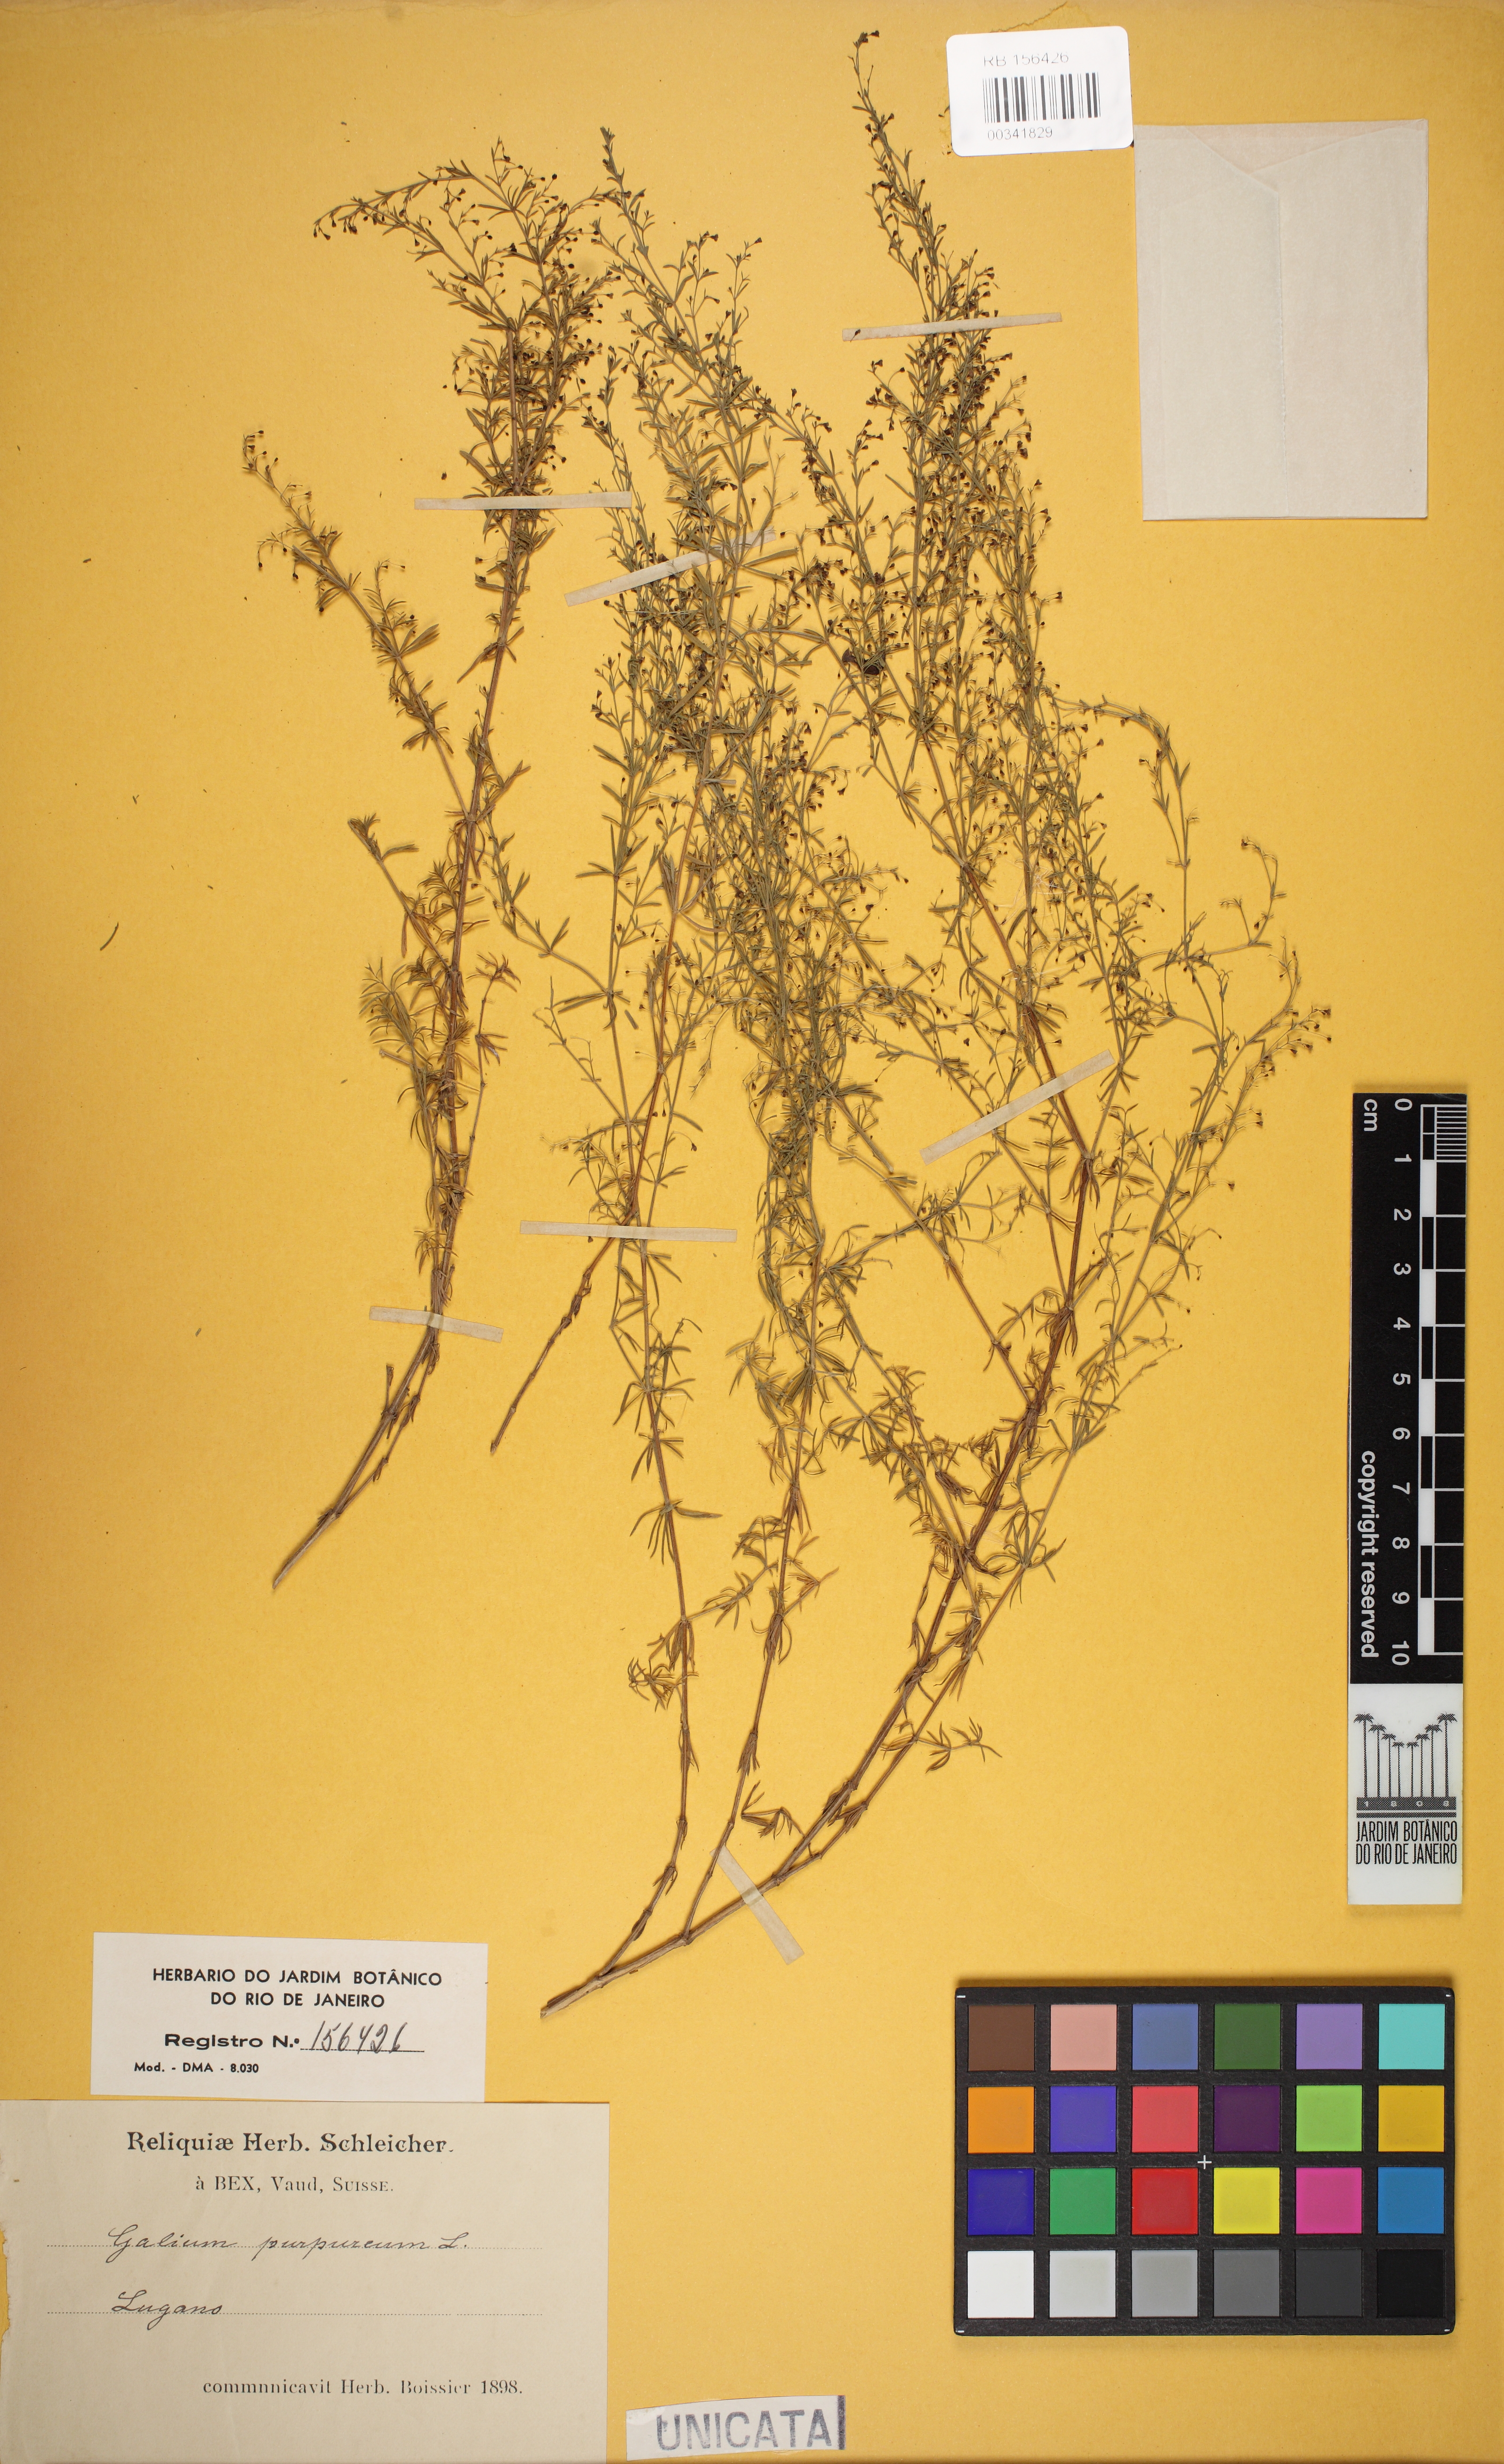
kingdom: Plantae
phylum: Tracheophyta
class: Magnoliopsida
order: Gentianales
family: Rubiaceae
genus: Thliphthisa
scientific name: Thliphthisa purpurea
